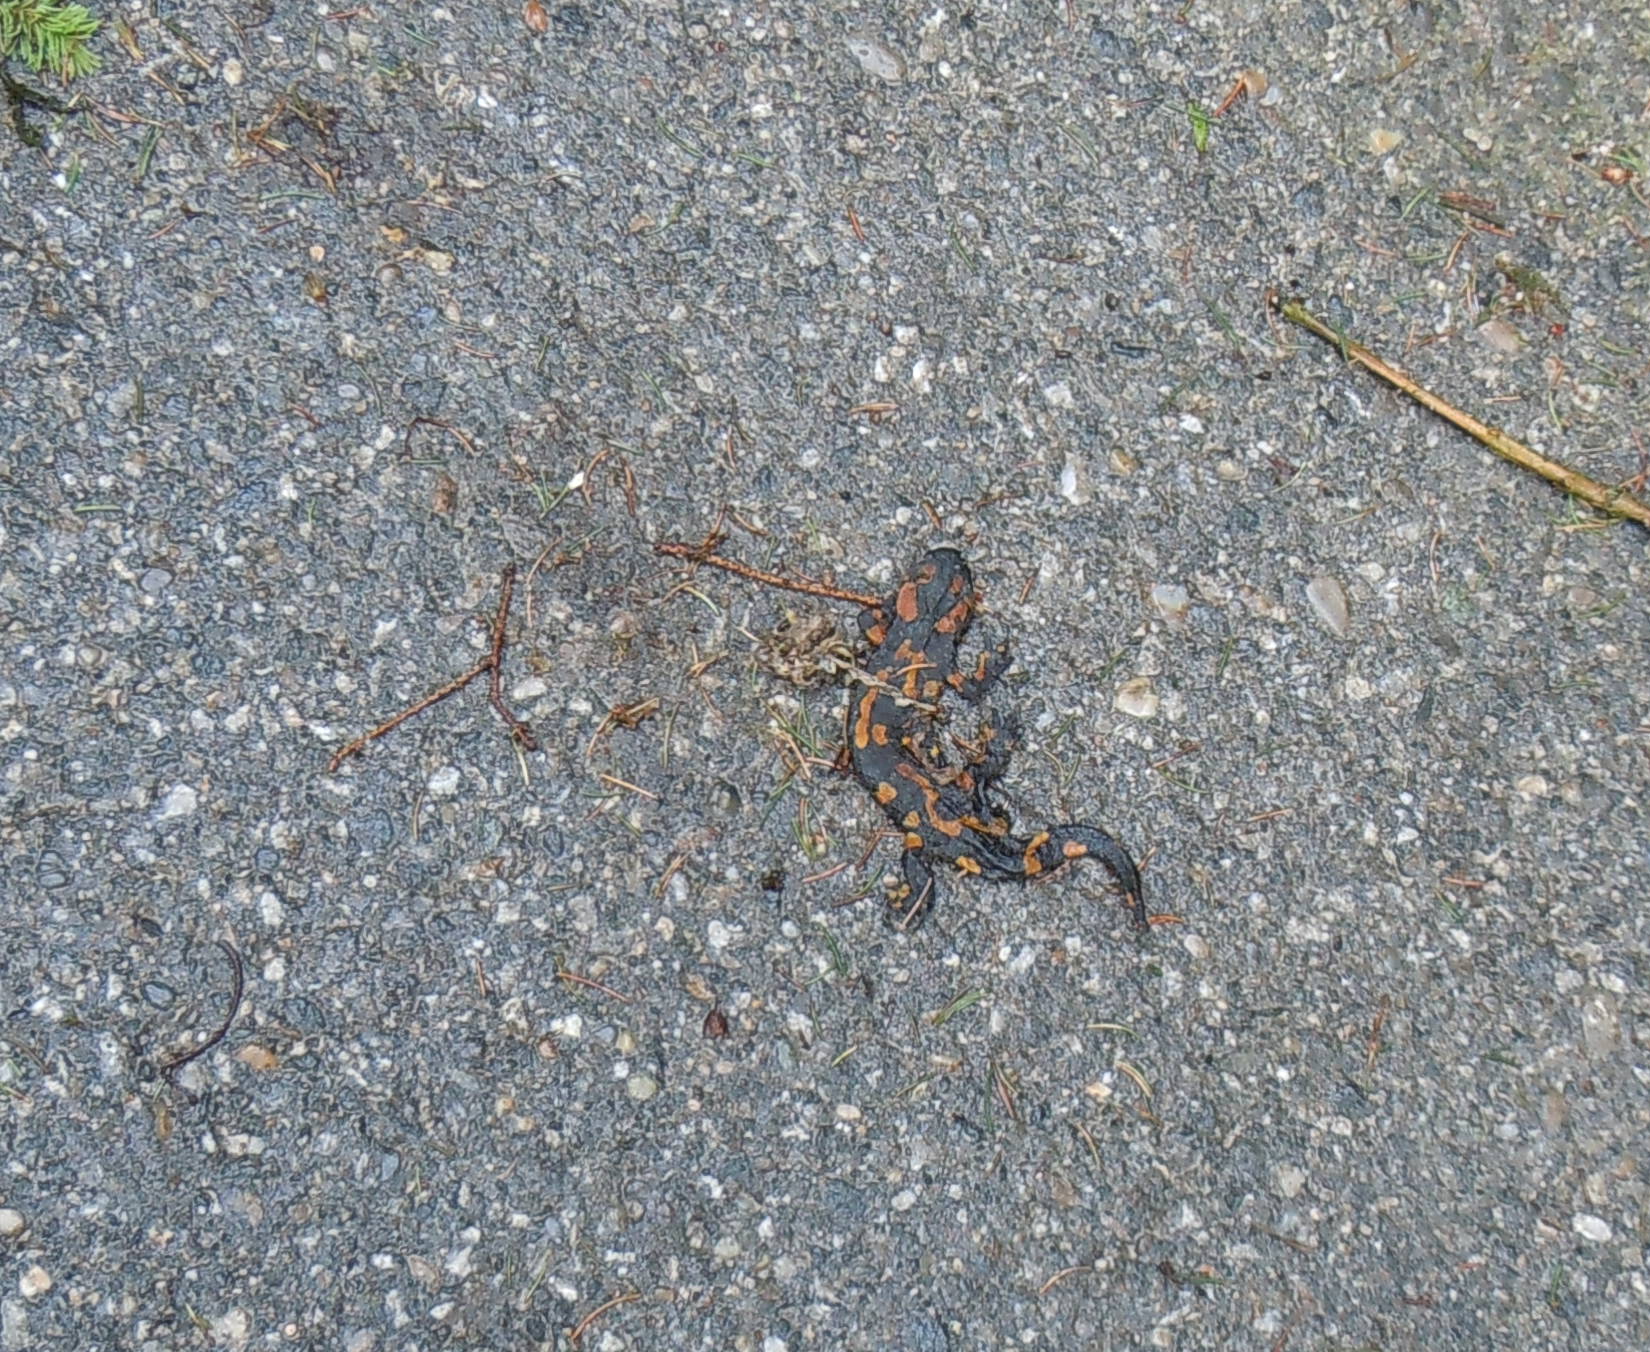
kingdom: Animalia
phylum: Chordata
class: Amphibia
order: Caudata
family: Salamandridae
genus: Salamandra
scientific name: Salamandra salamandra
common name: Fire salamander
